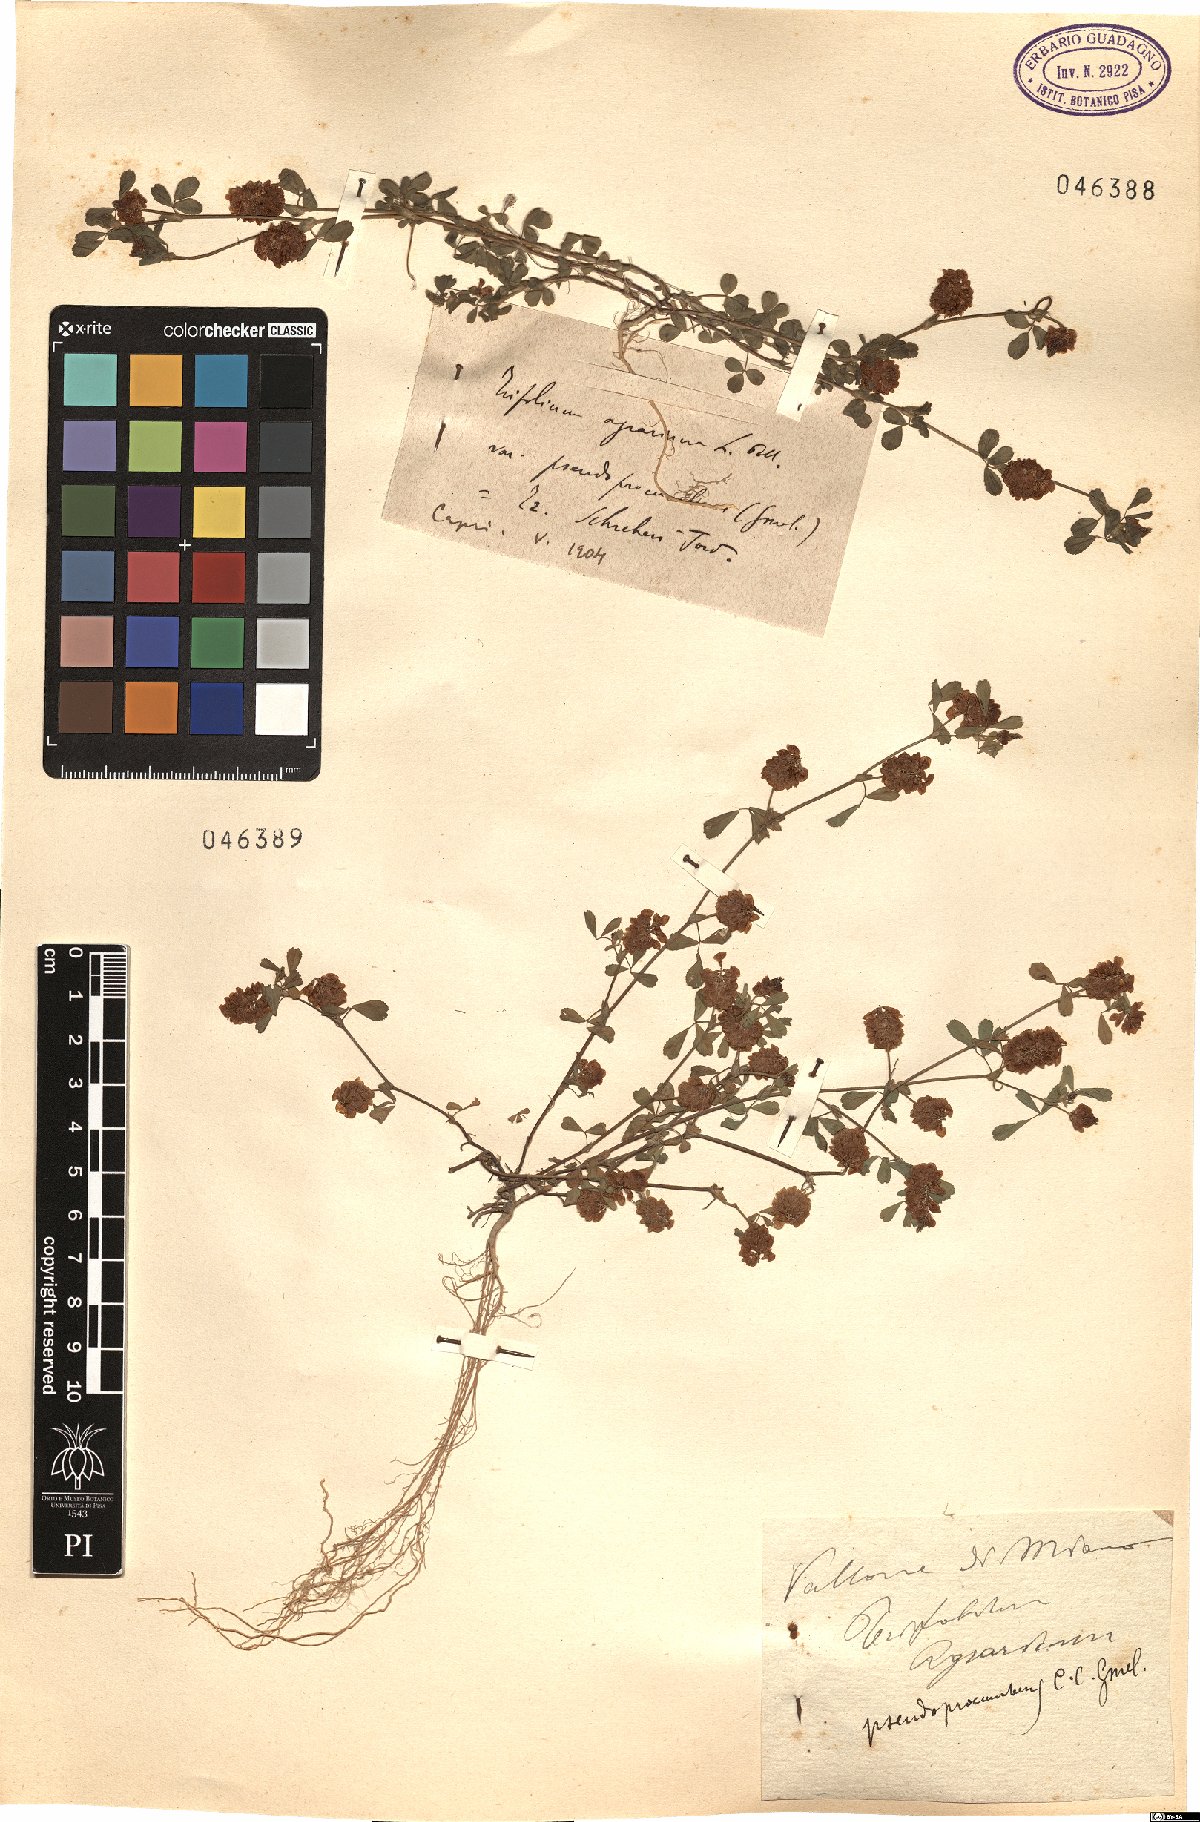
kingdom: Plantae
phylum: Tracheophyta
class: Magnoliopsida
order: Fabales
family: Fabaceae
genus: Trifolium
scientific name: Trifolium campestre
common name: Field clover
